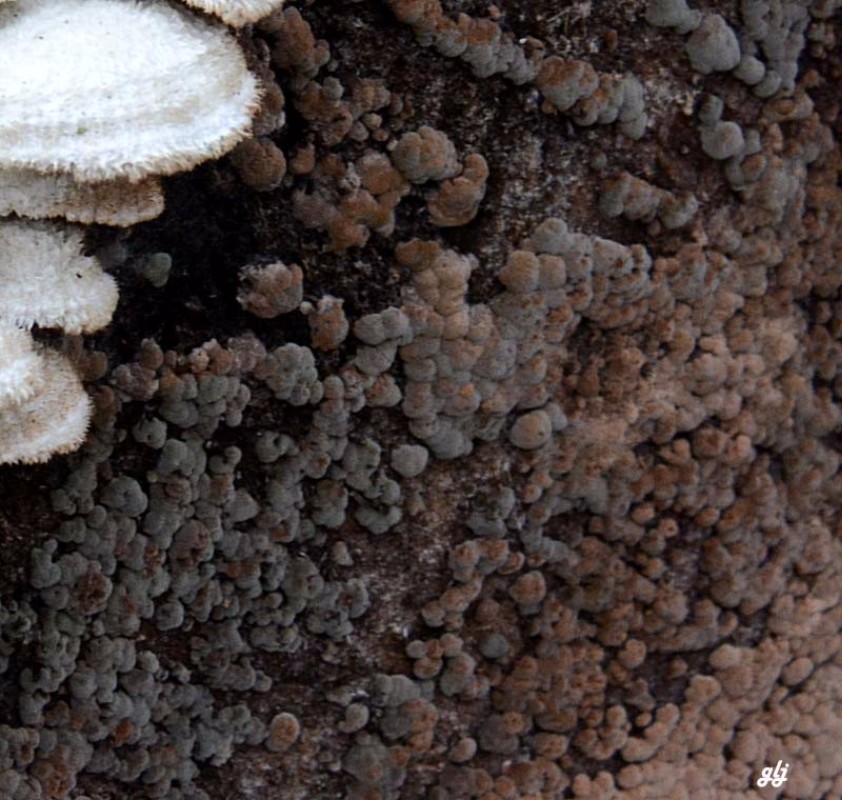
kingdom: Fungi
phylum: Ascomycota
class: Sordariomycetes
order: Xylariales
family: Hypoxylaceae
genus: Hypoxylon
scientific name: Hypoxylon fragiforme
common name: kuljordbær
